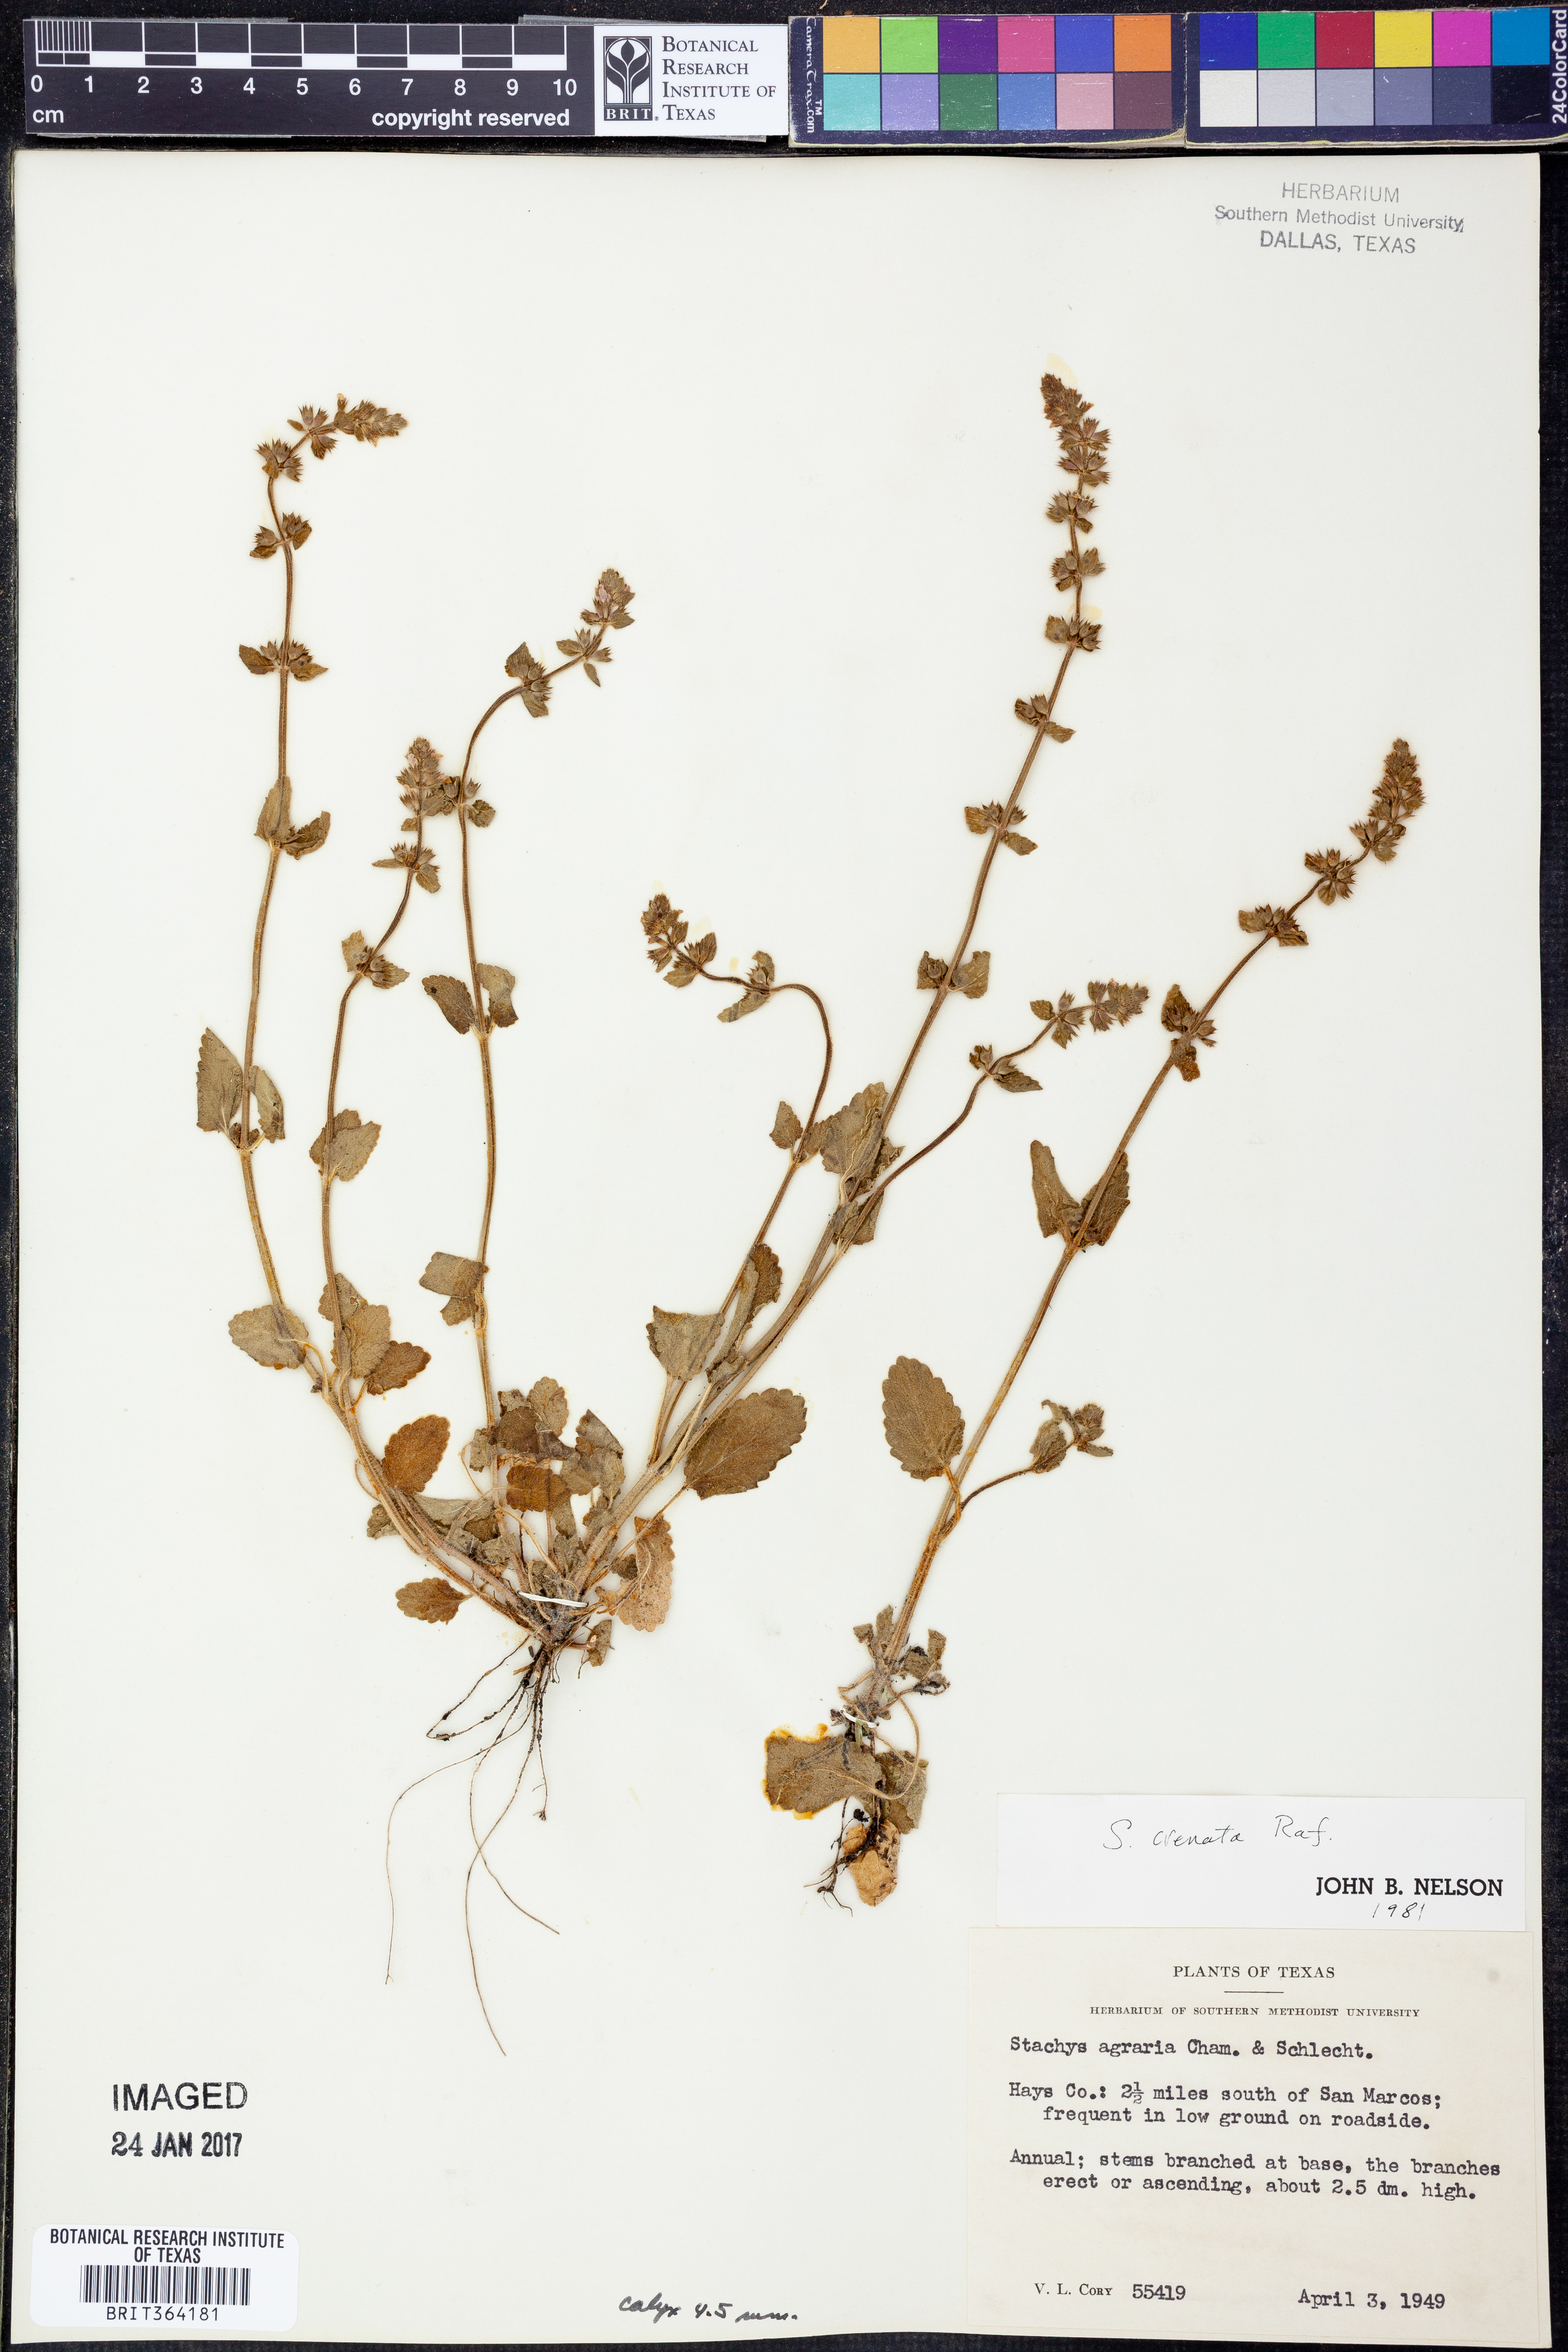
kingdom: Plantae
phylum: Tracheophyta
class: Magnoliopsida
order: Lamiales
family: Lamiaceae
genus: Stachys
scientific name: Stachys agraria
